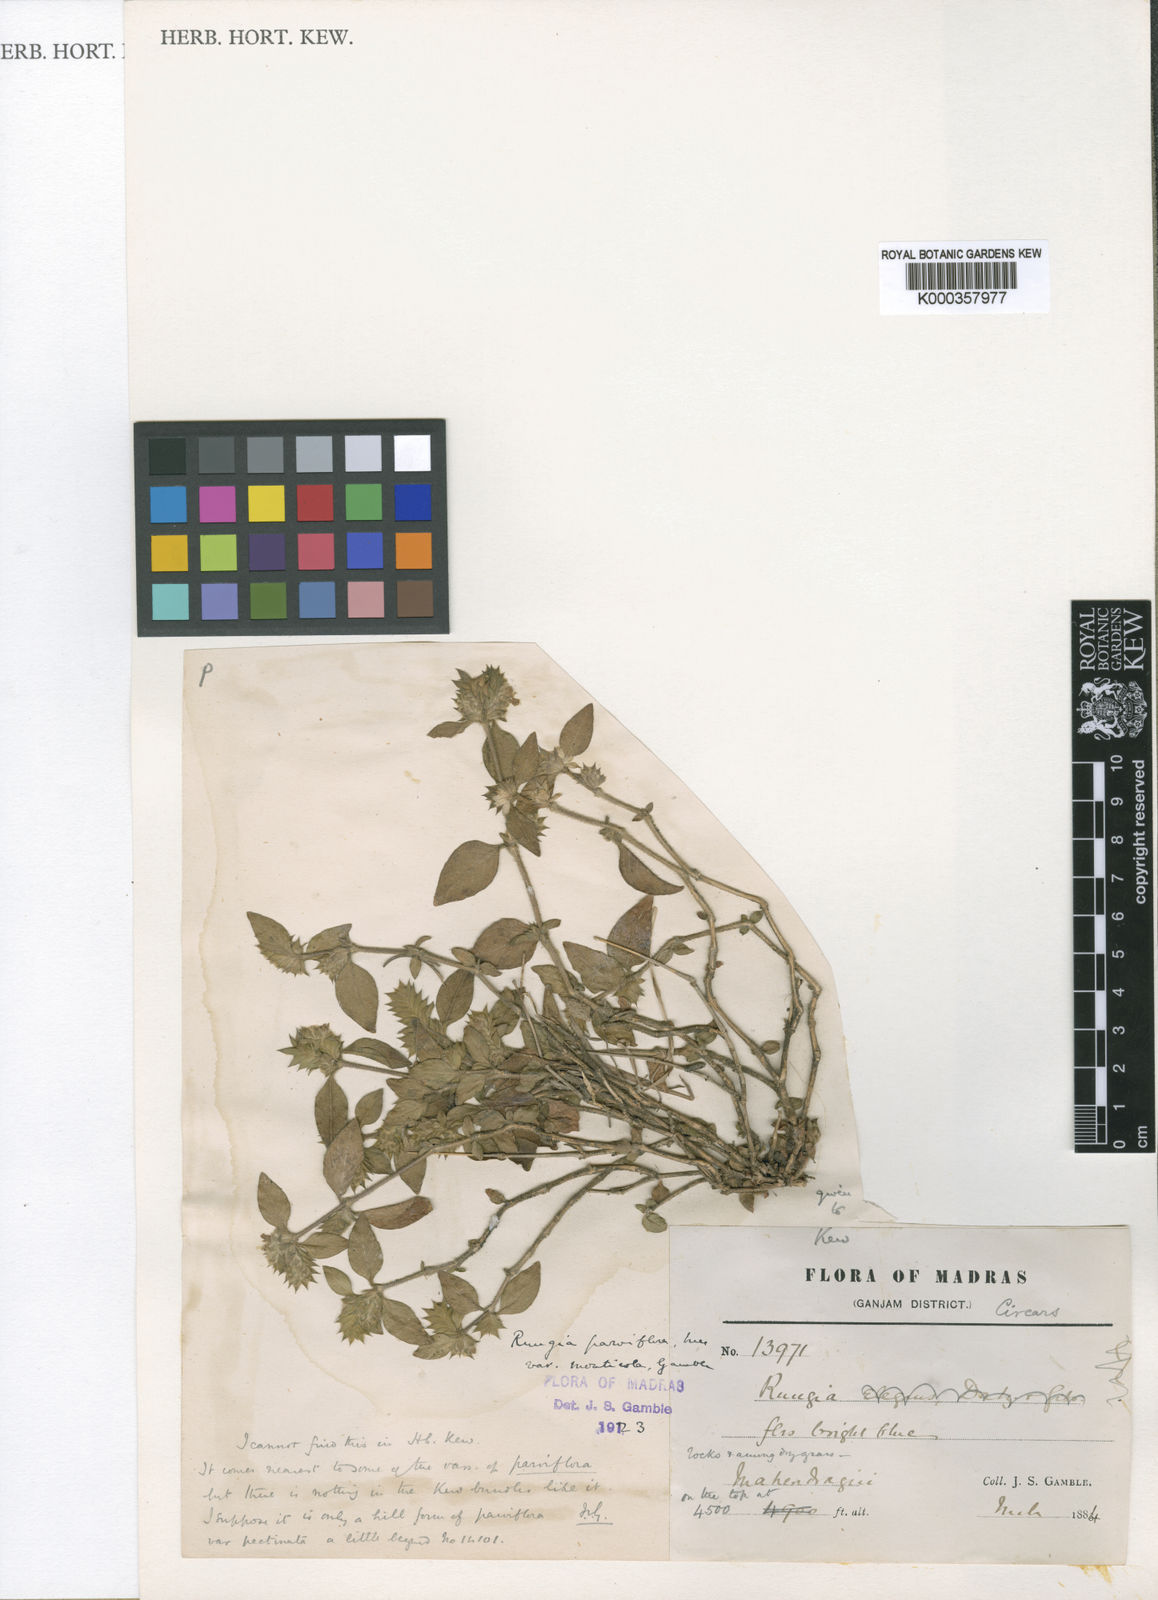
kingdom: Plantae
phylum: Tracheophyta
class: Magnoliopsida
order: Lamiales
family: Acanthaceae
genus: Rungia
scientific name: Rungia parviflora
